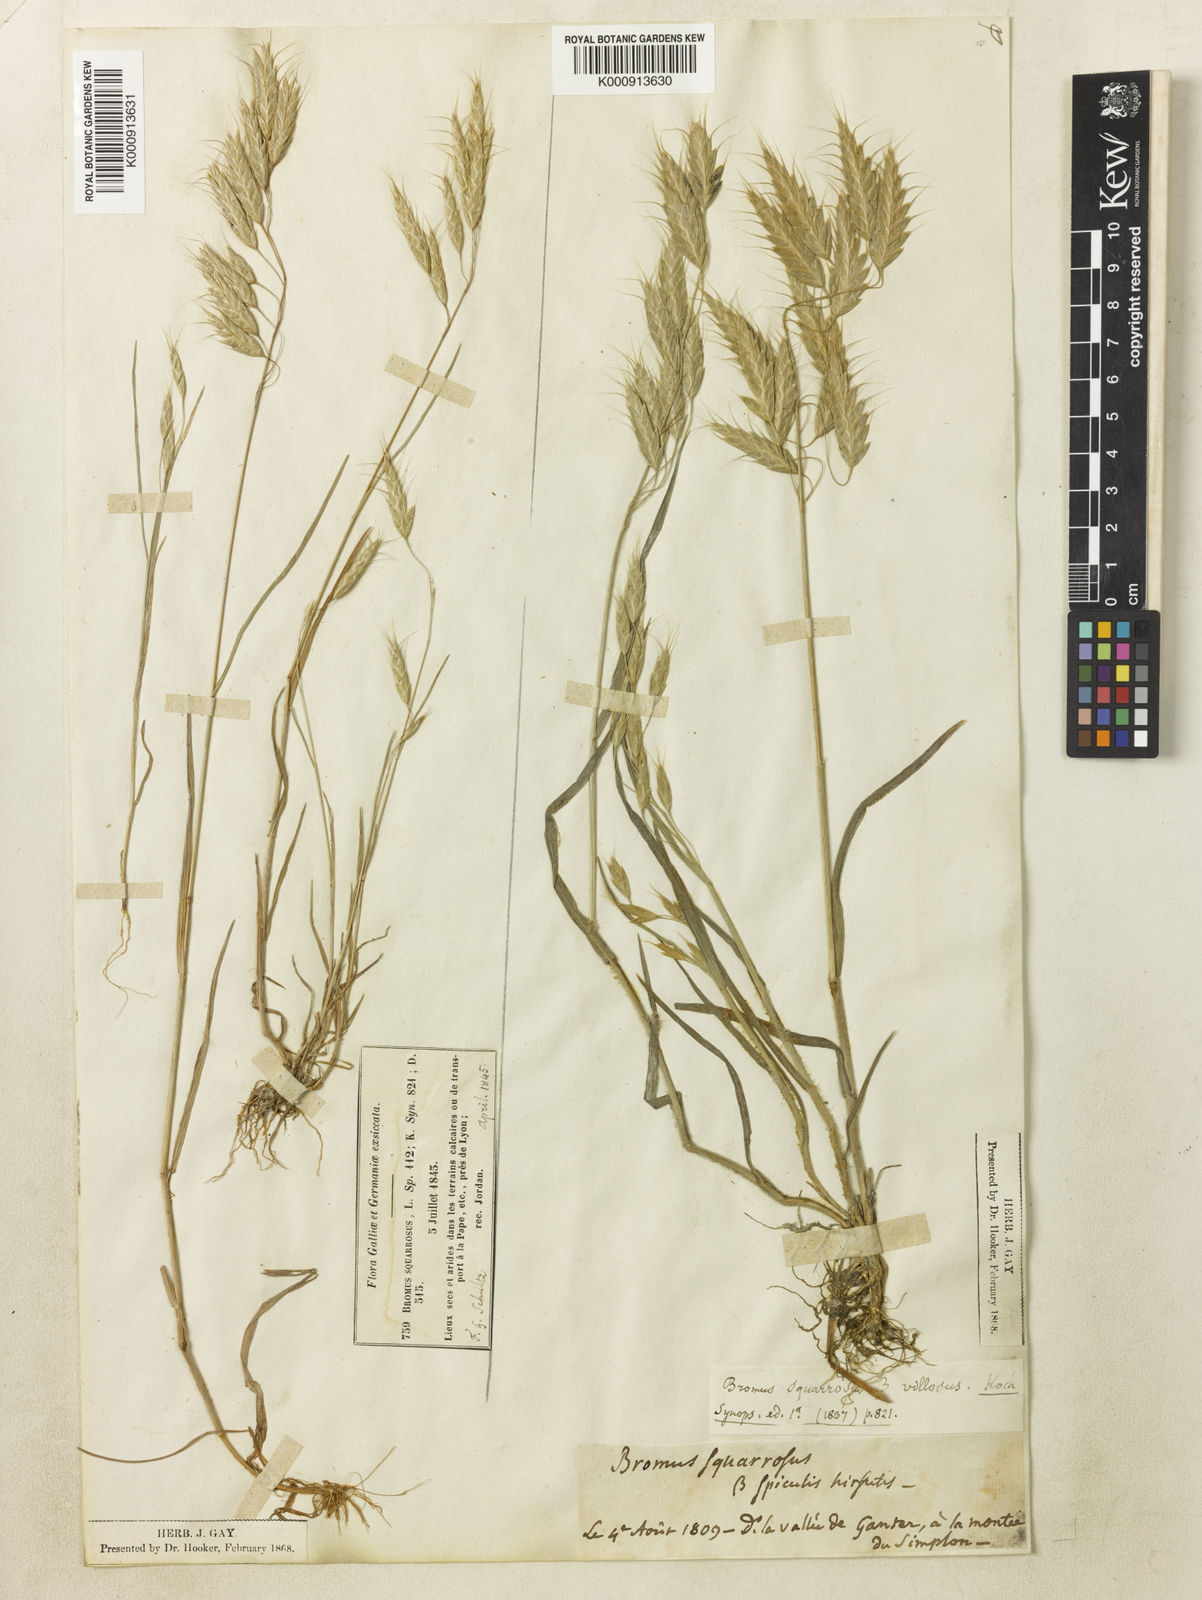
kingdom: Plantae
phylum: Tracheophyta
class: Liliopsida
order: Poales
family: Poaceae
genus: Bromus
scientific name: Bromus squarrosus
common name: Corn brome
